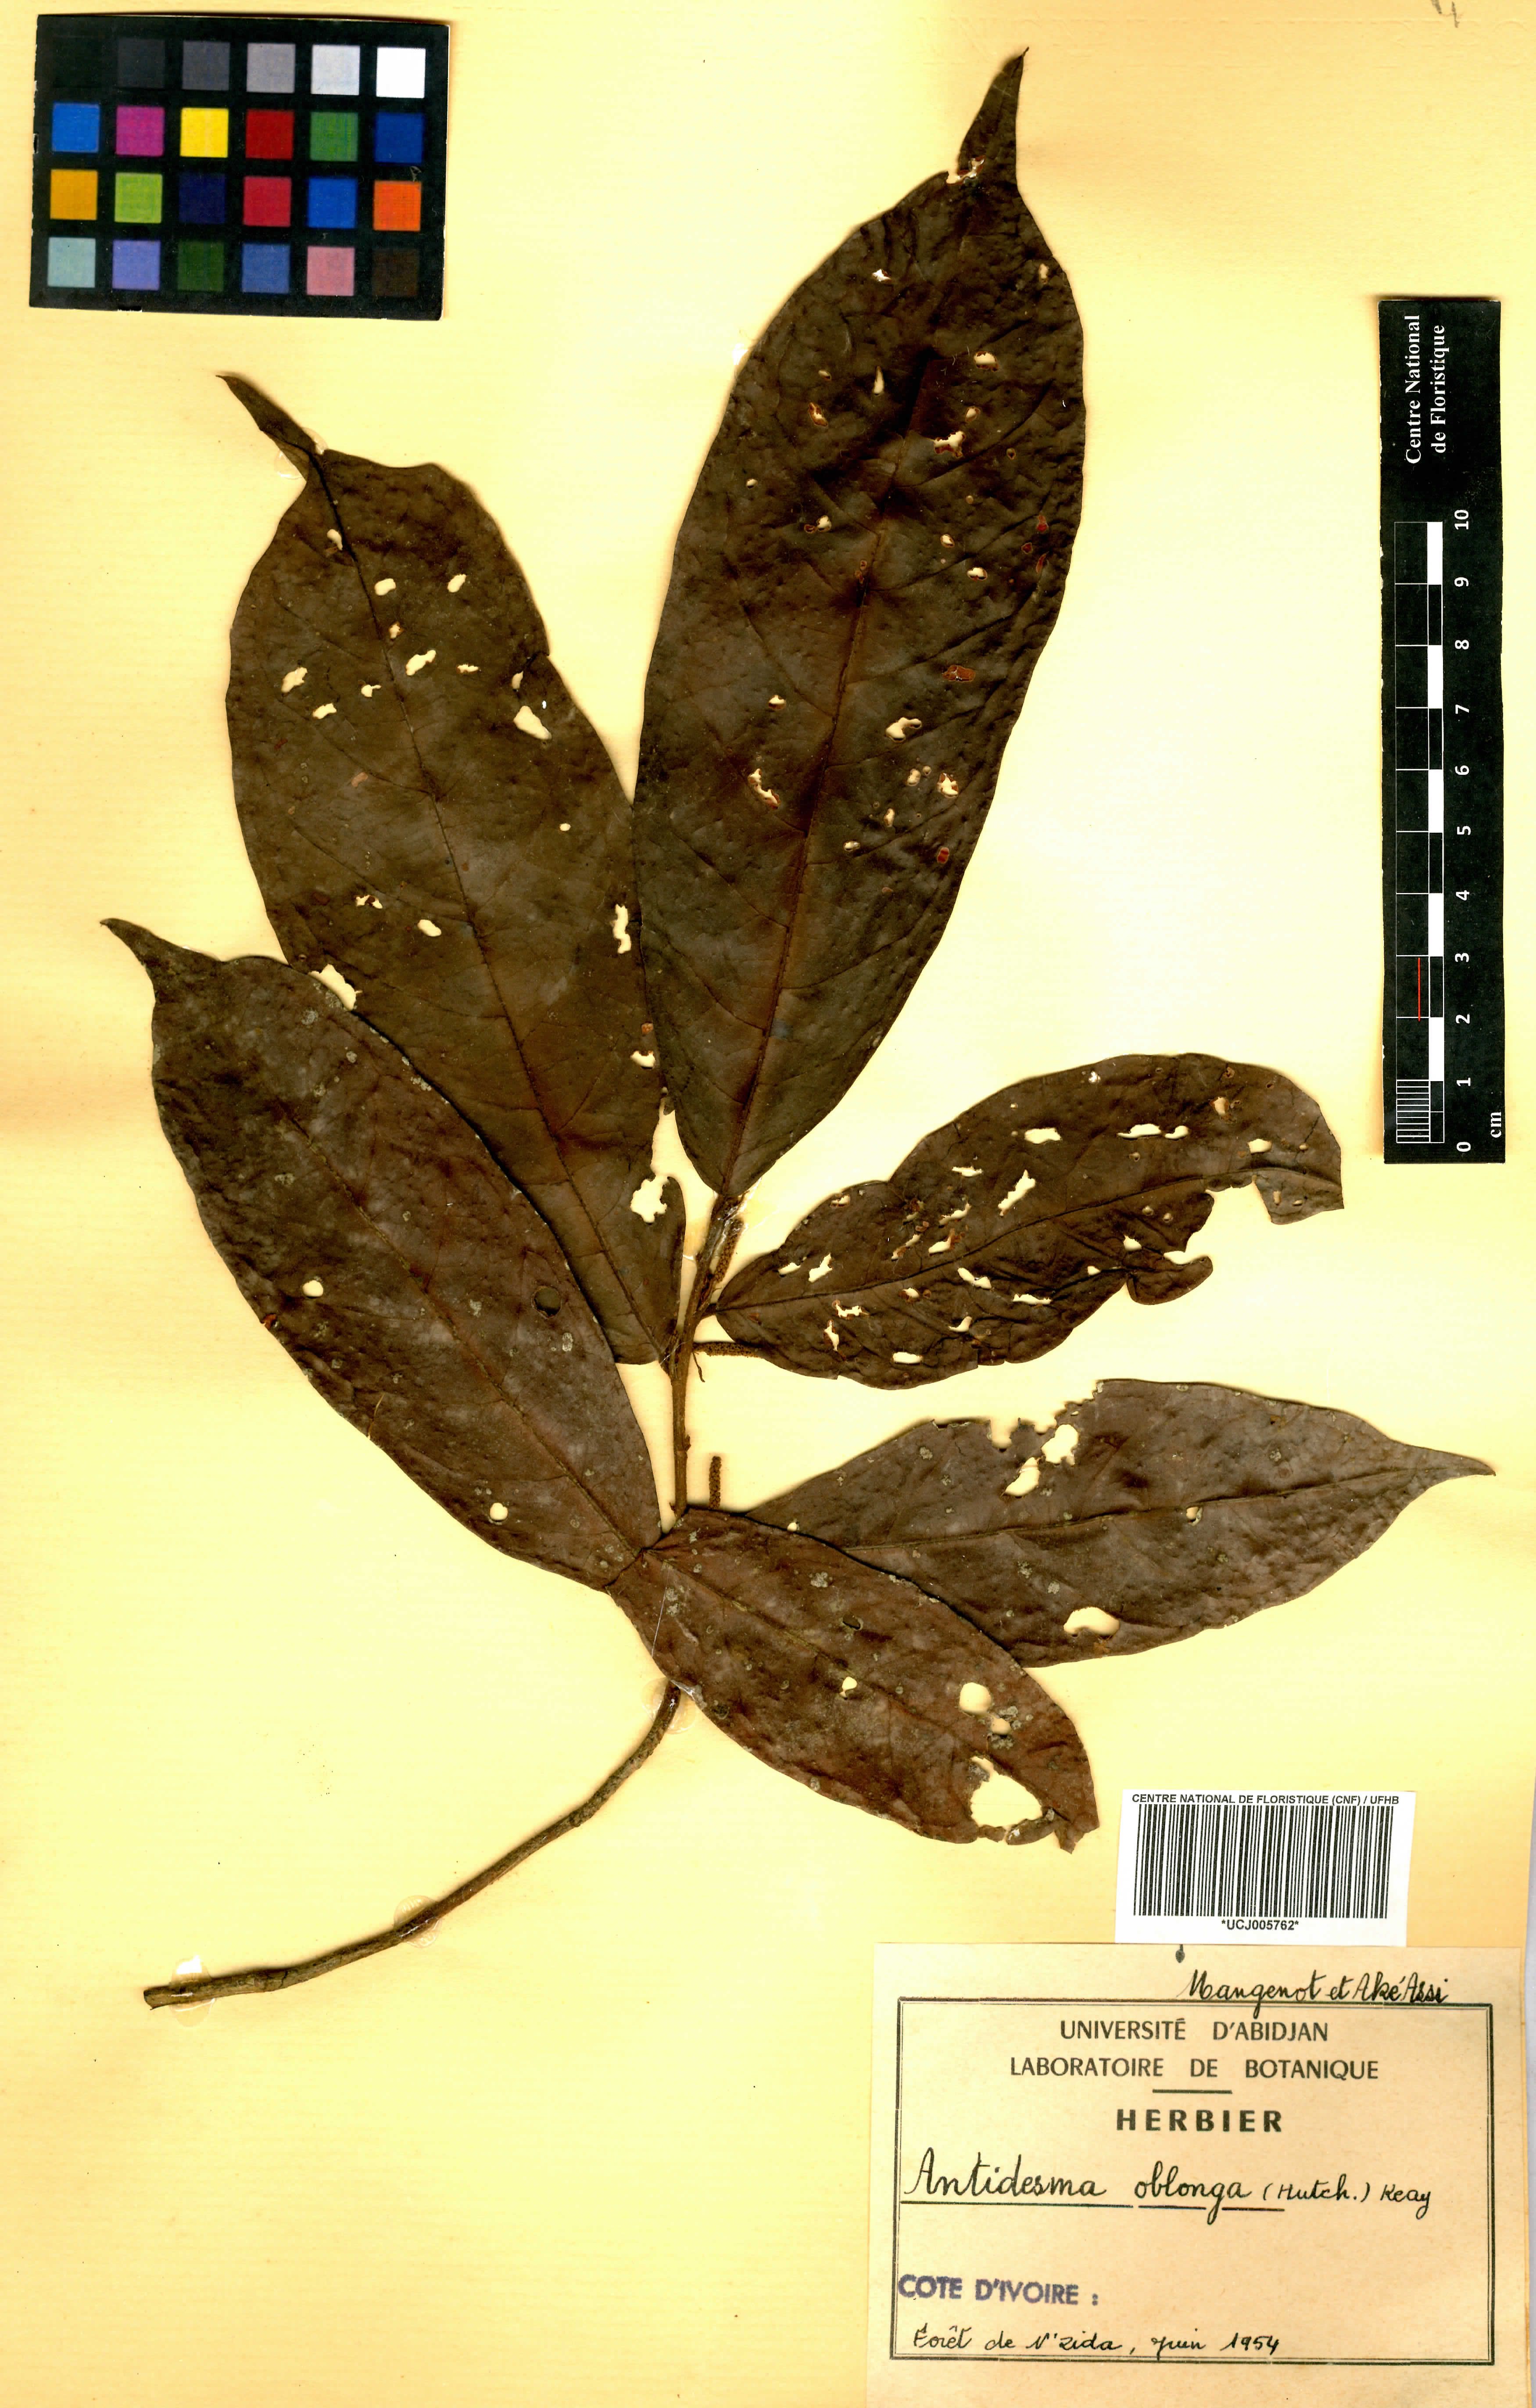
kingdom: Plantae
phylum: Tracheophyta
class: Magnoliopsida
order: Malpighiales
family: Phyllanthaceae
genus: Antidesma
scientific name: Antidesma oblongum
